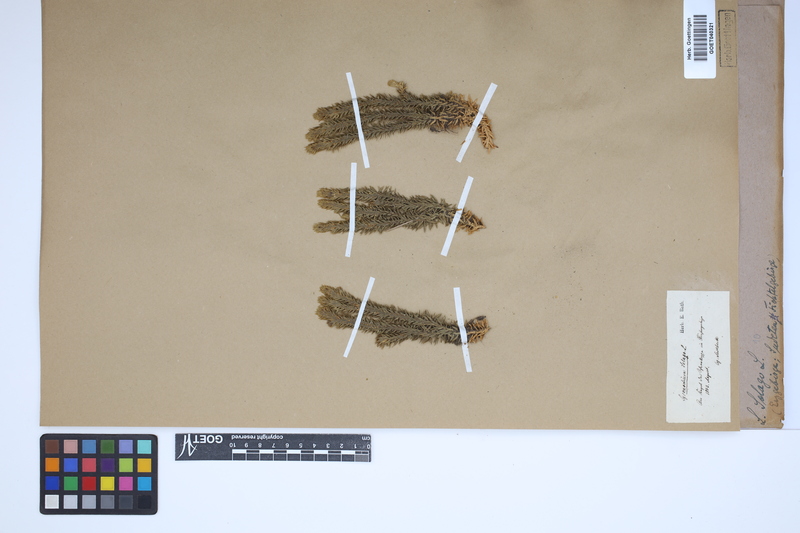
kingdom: Plantae
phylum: Tracheophyta
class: Lycopodiopsida
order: Lycopodiales
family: Lycopodiaceae
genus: Huperzia
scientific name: Huperzia selago
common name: Northern firmoss
